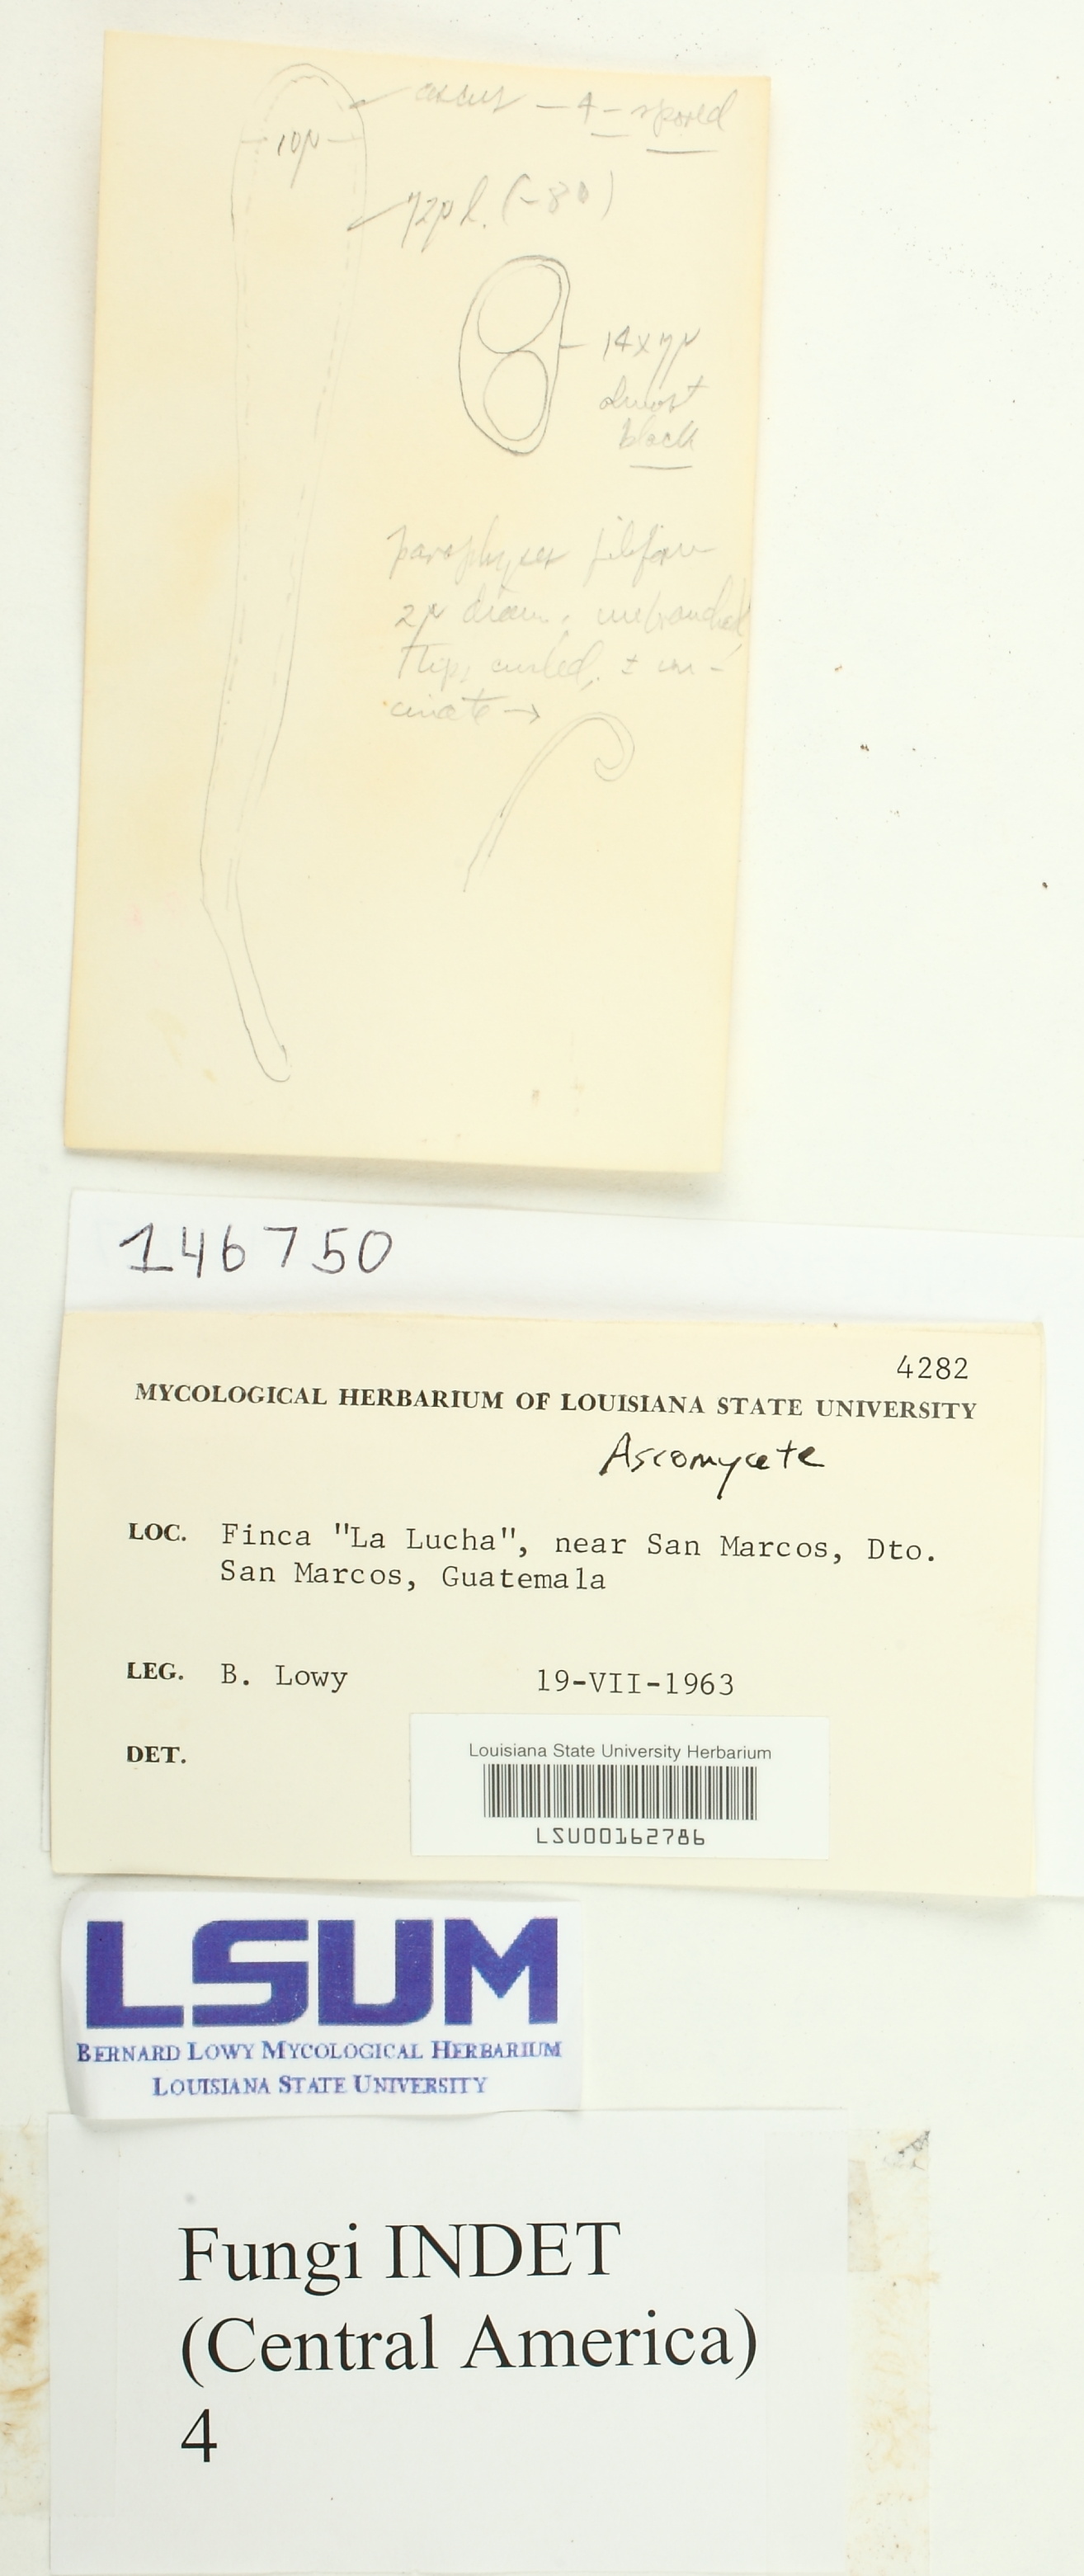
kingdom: Fungi
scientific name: Fungi
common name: Fungi
